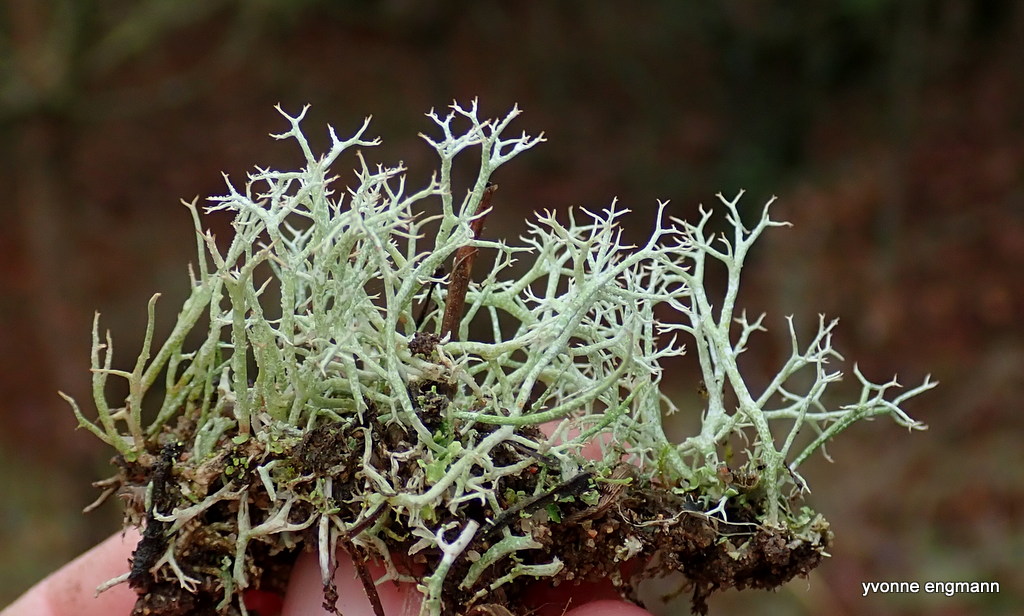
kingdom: Fungi
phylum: Ascomycota
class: Lecanoromycetes
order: Lecanorales
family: Cladoniaceae
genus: Cladonia
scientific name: Cladonia rangiformis
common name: spættet bægerlav
